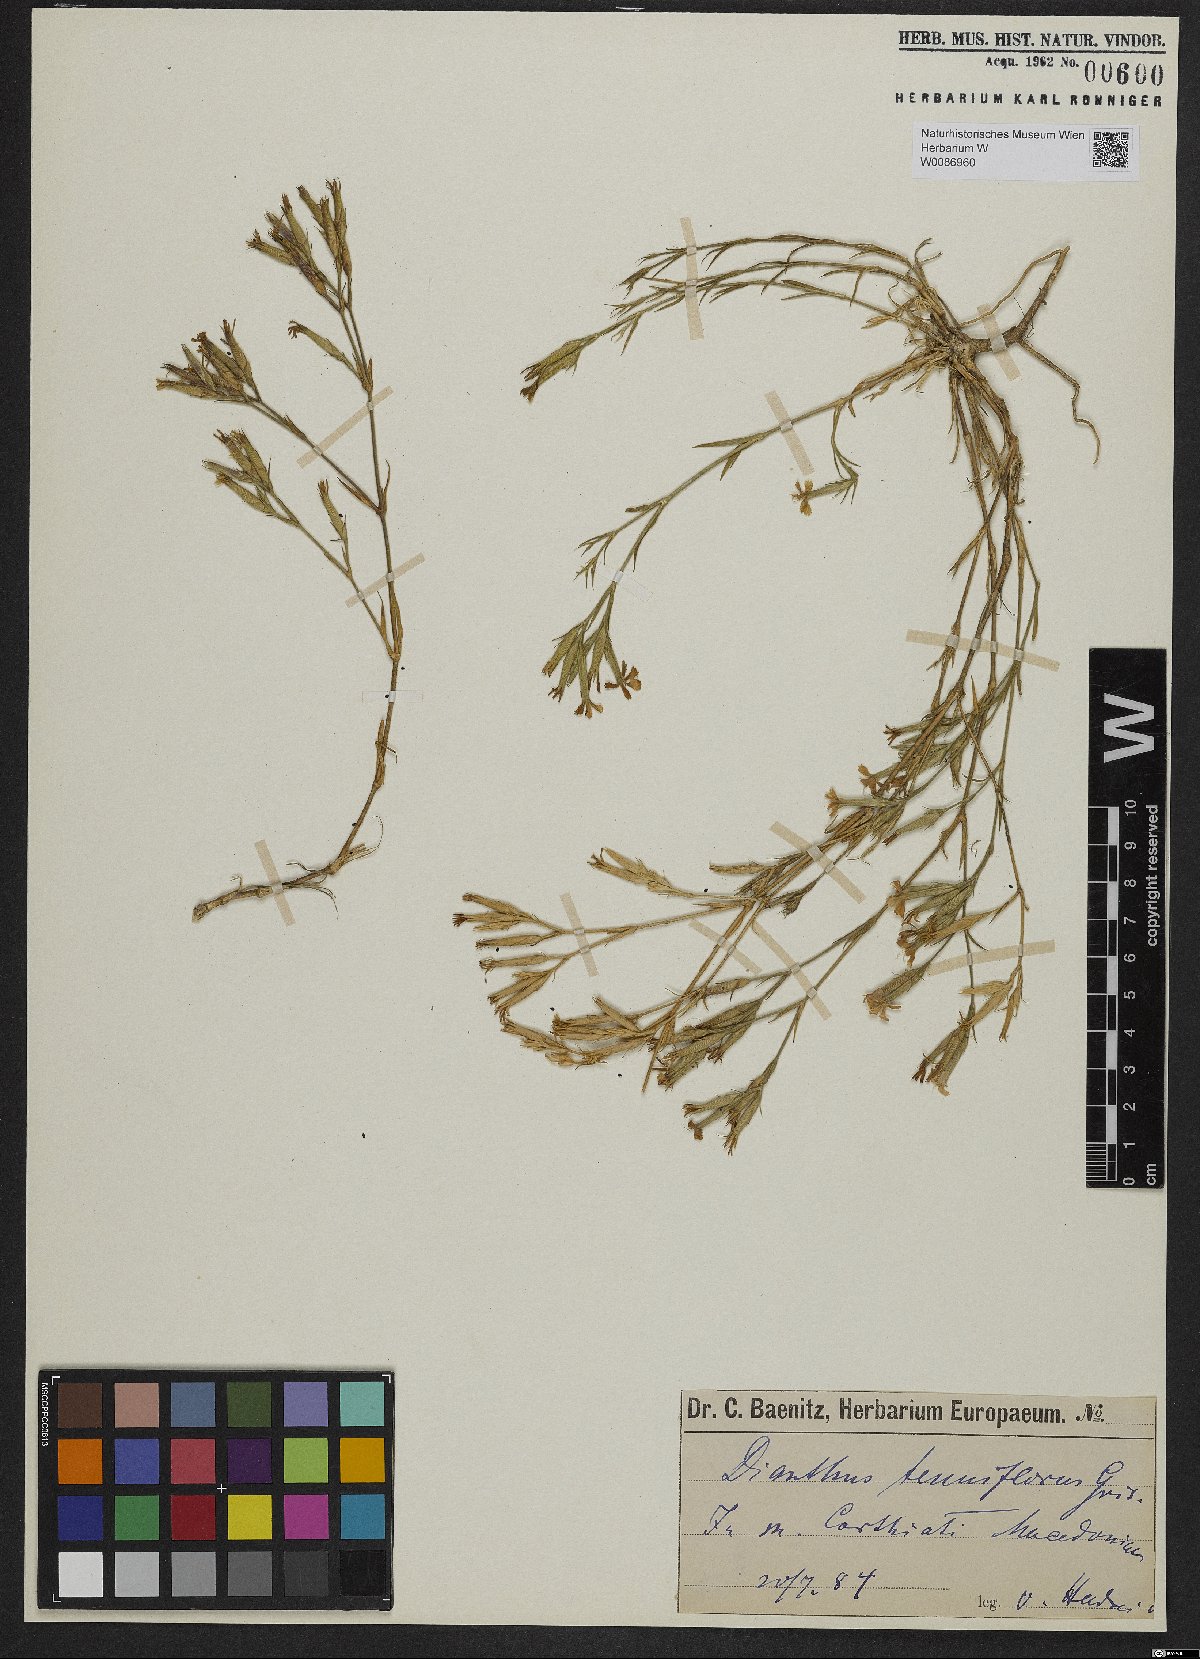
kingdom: Plantae
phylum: Tracheophyta
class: Magnoliopsida
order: Caryophyllales
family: Caryophyllaceae
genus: Dianthus
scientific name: Dianthus tenuiflorus
